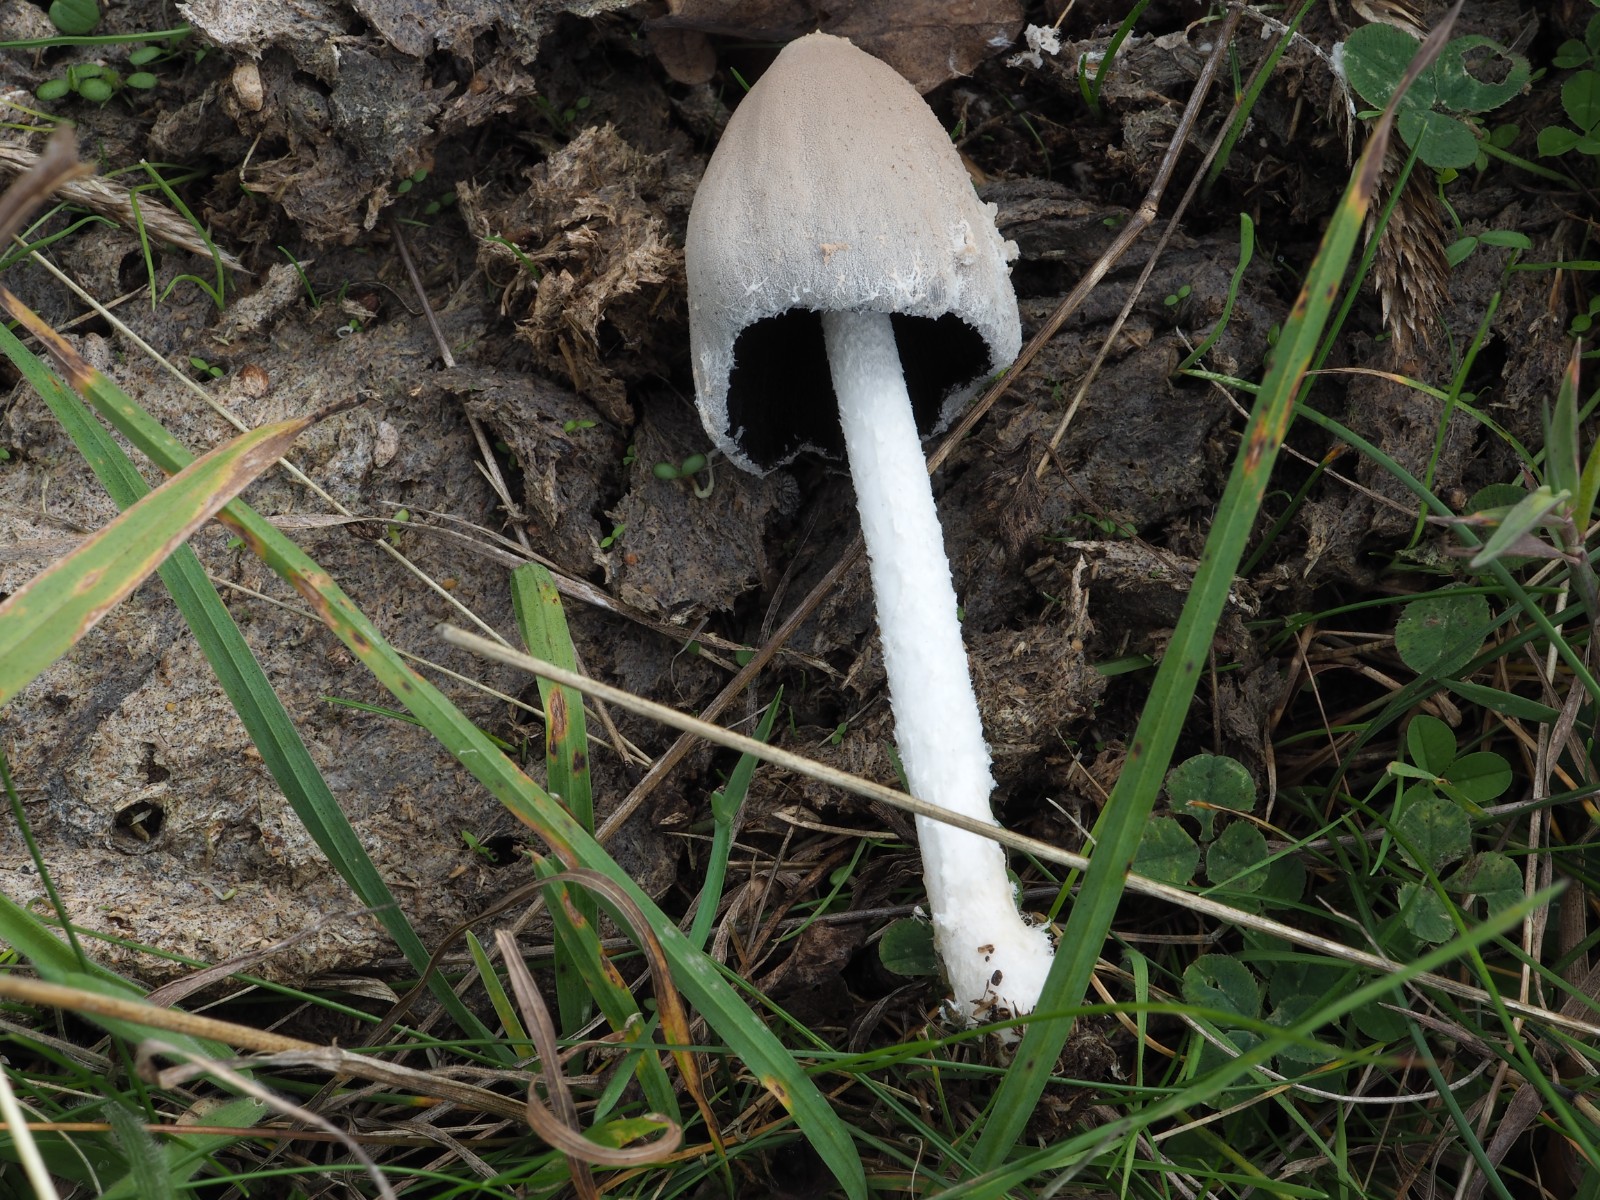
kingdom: Fungi
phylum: Basidiomycota
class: Agaricomycetes
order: Agaricales
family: Psathyrellaceae
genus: Coprinopsis
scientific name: Coprinopsis
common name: blækhat
